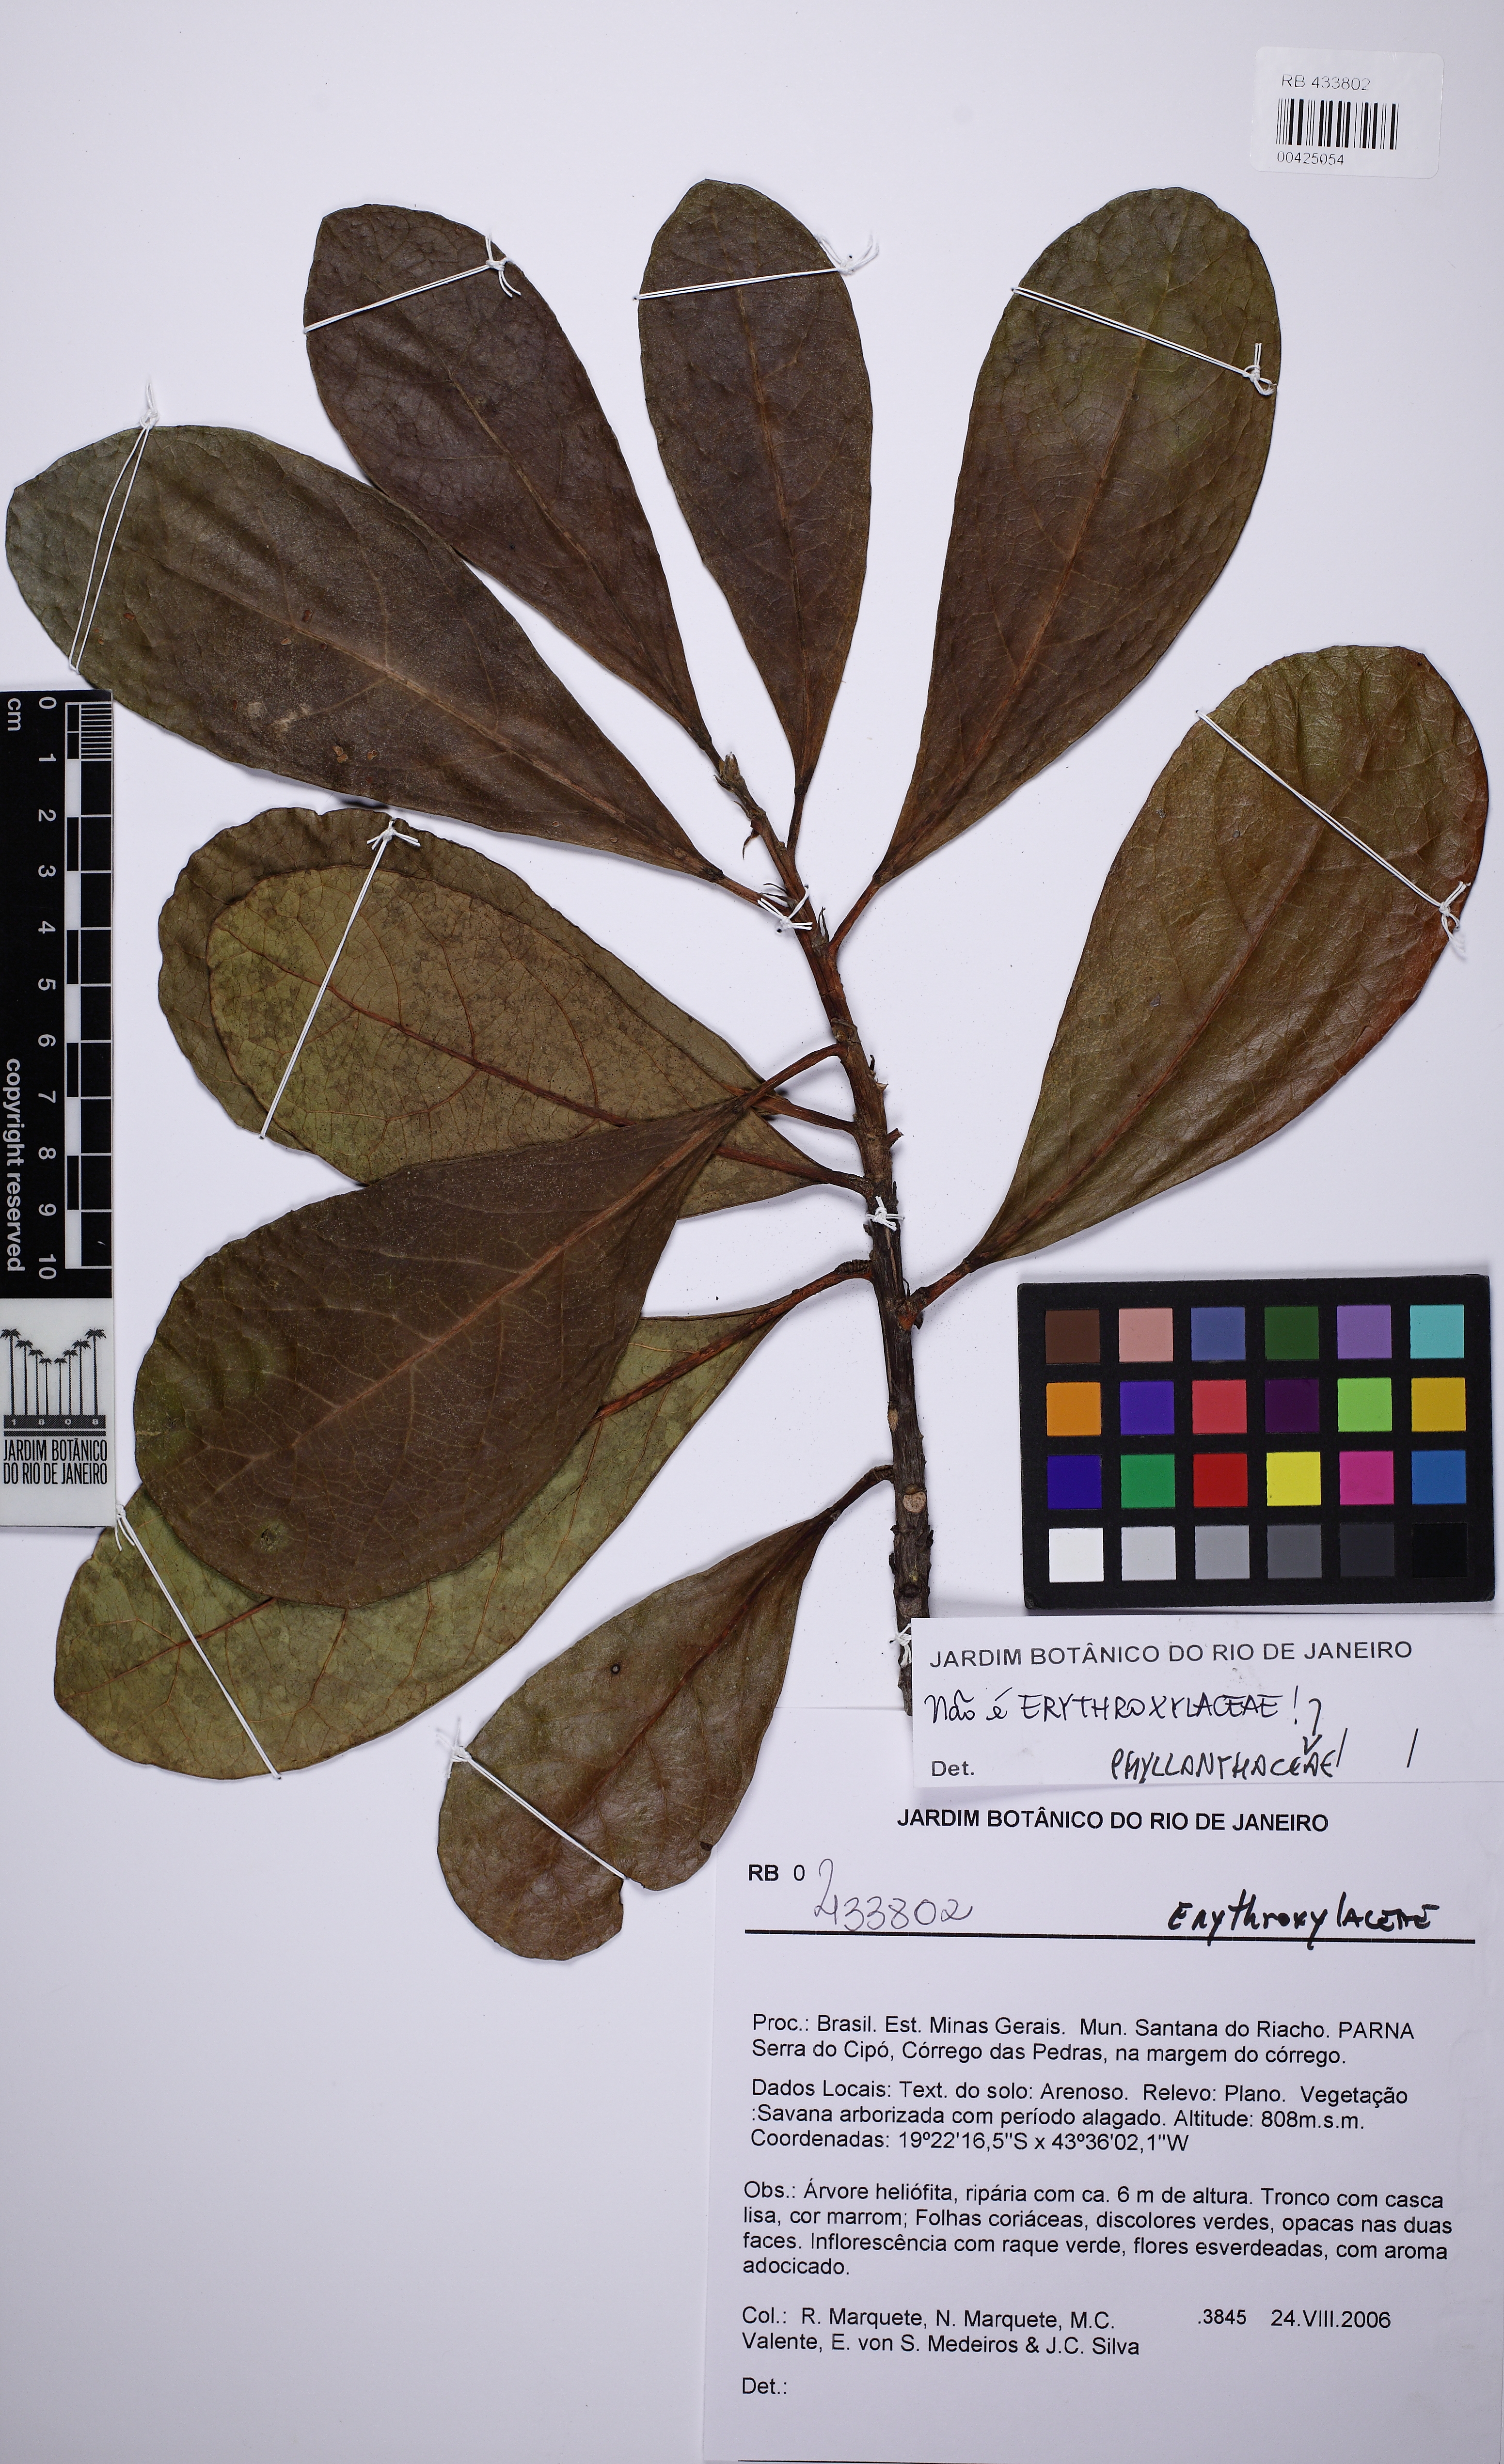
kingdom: Plantae
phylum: Tracheophyta
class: Magnoliopsida
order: Malpighiales
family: Phyllanthaceae
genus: Richeria
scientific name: Richeria grandis
